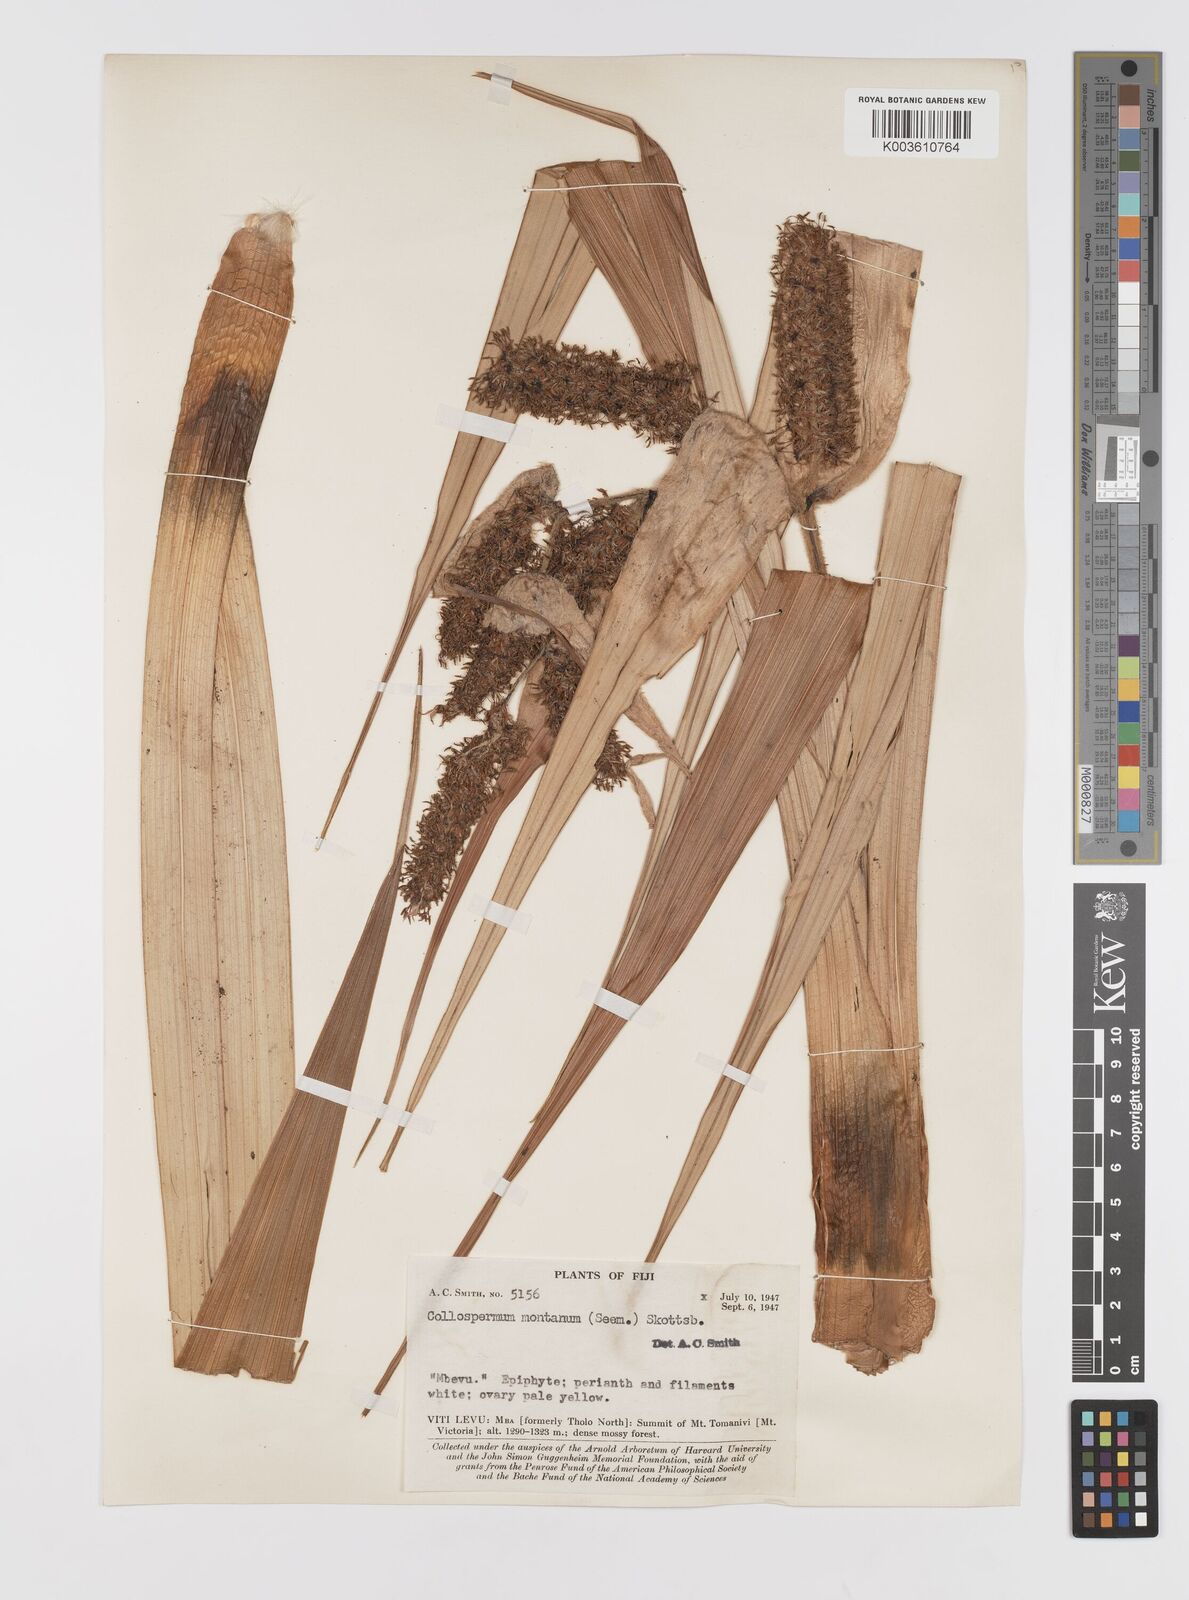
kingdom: Plantae
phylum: Tracheophyta
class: Liliopsida
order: Asparagales
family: Asteliaceae
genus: Astelia
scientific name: Astelia montana
